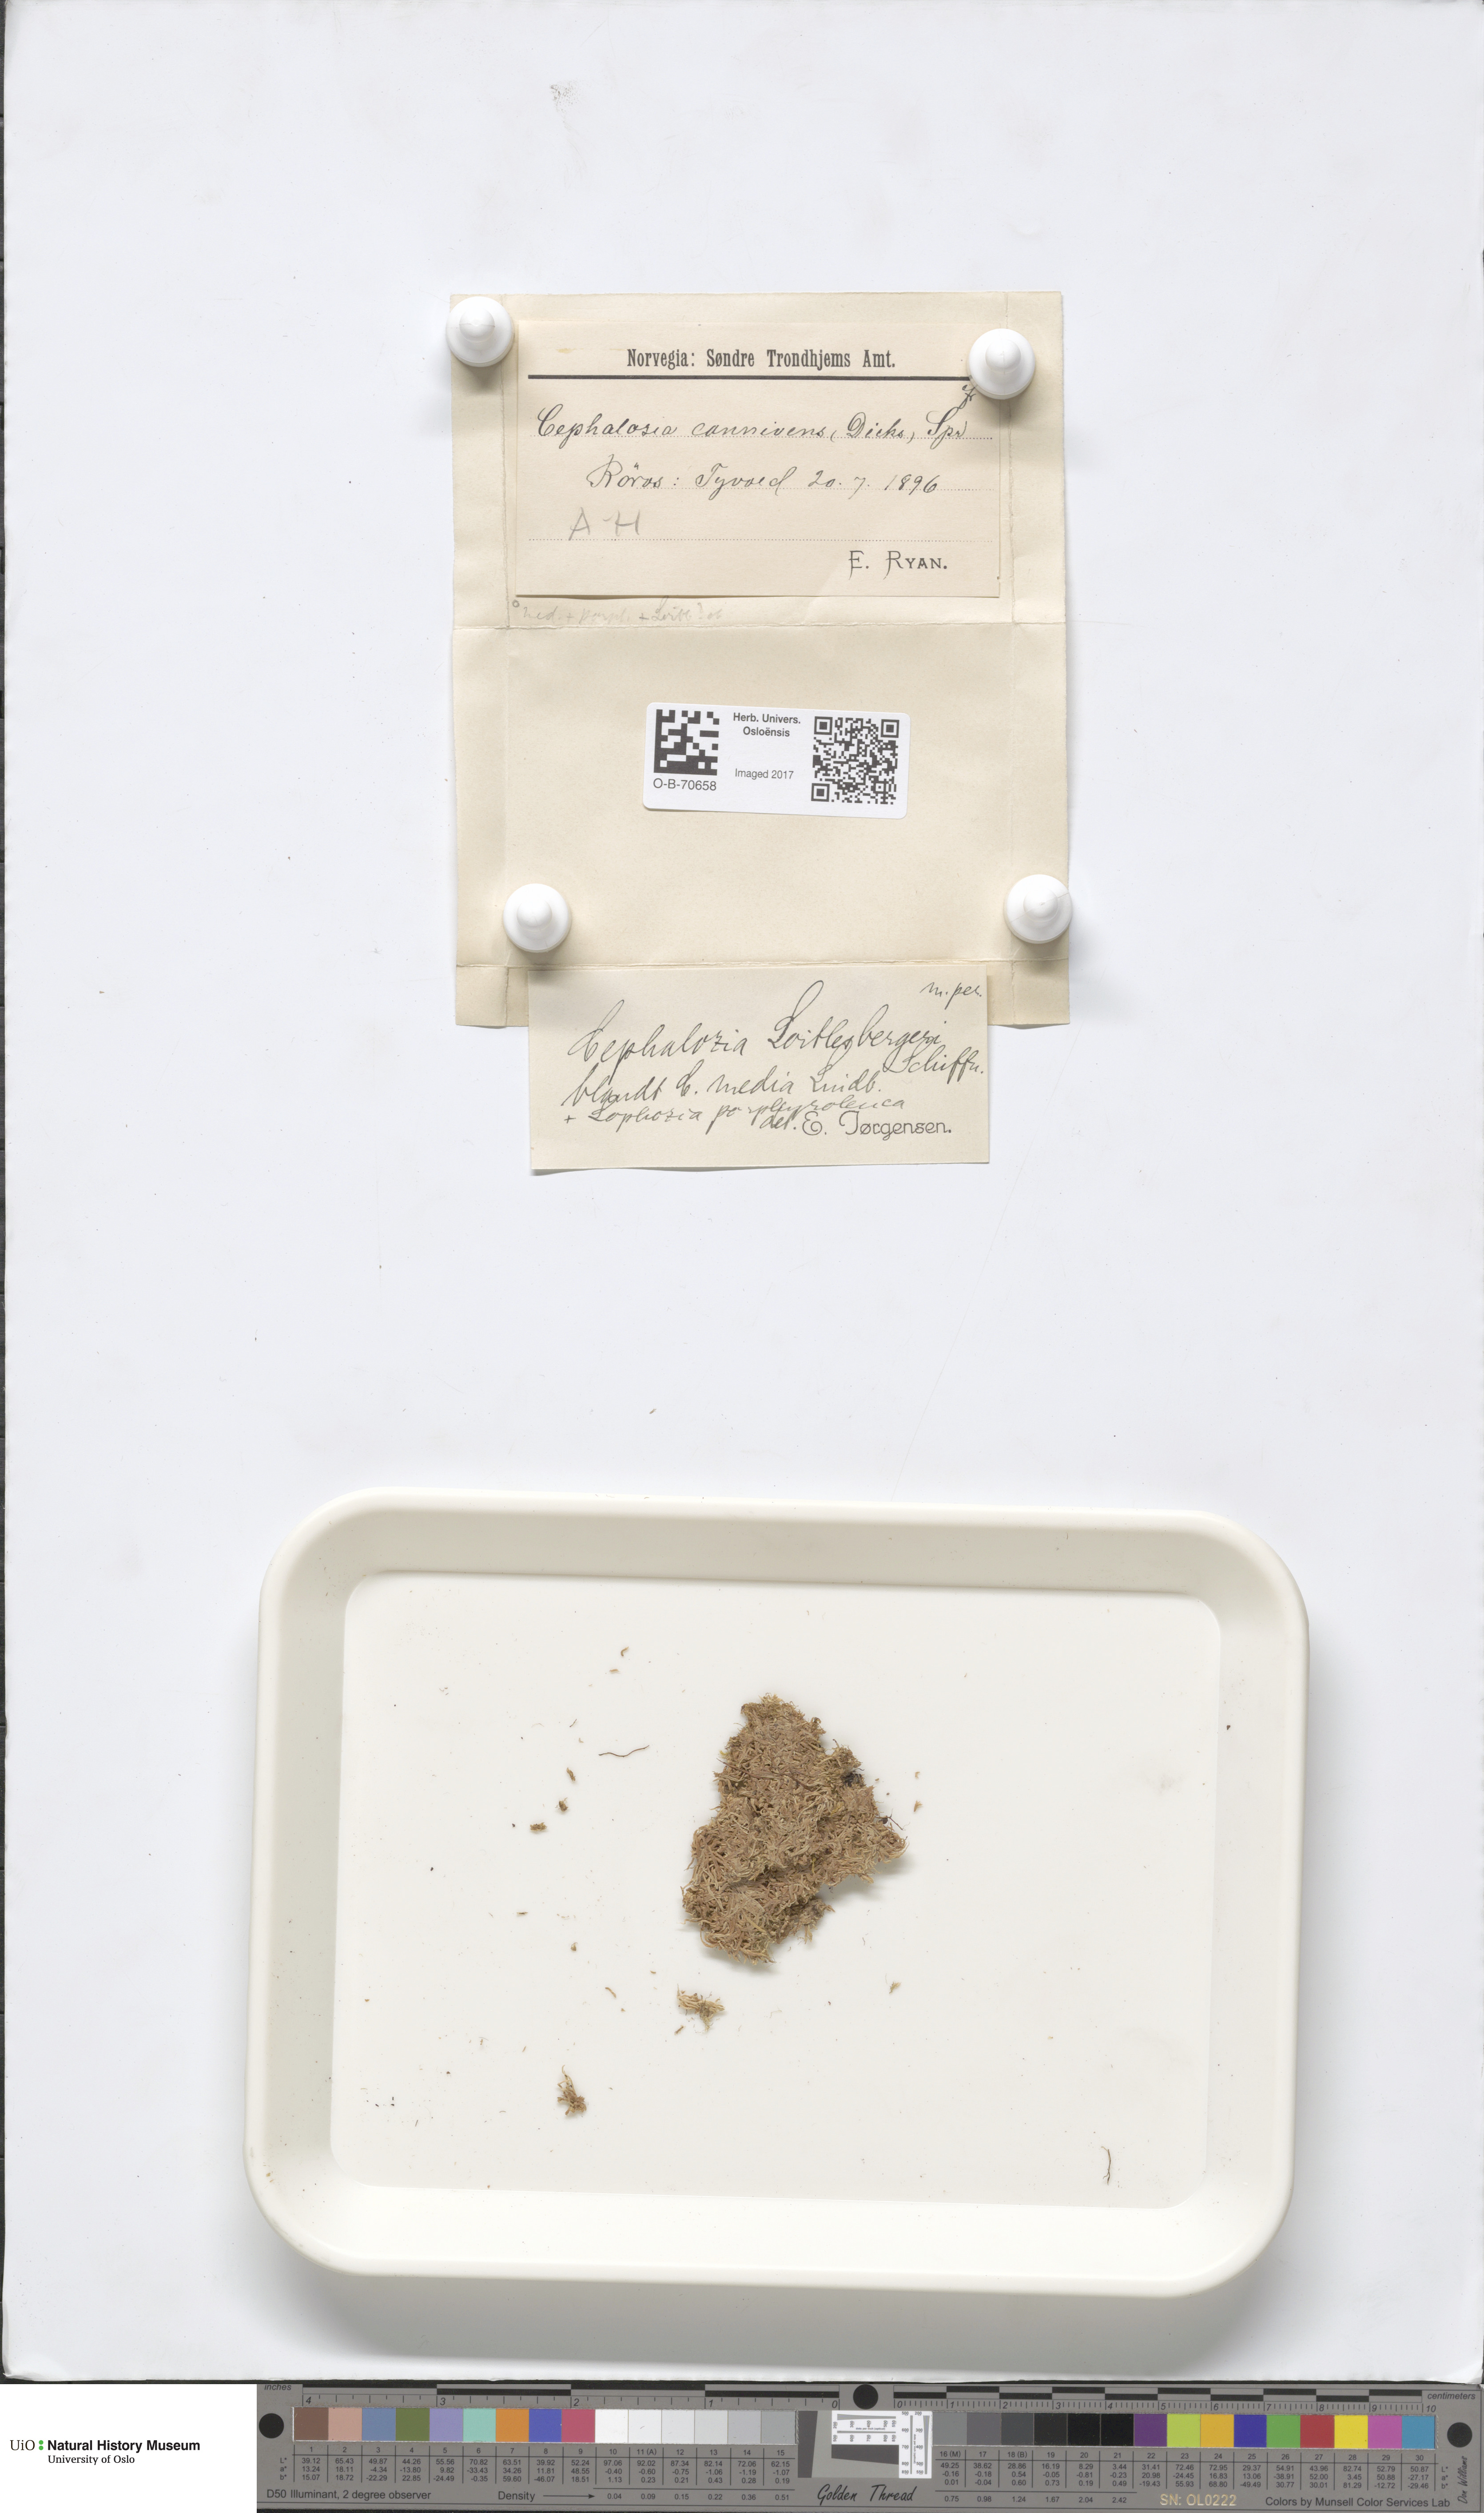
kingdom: Plantae
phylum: Marchantiophyta
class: Jungermanniopsida
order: Jungermanniales
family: Cephaloziaceae
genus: Fuscocephaloziopsis
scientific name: Fuscocephaloziopsis loitlesbergeri
